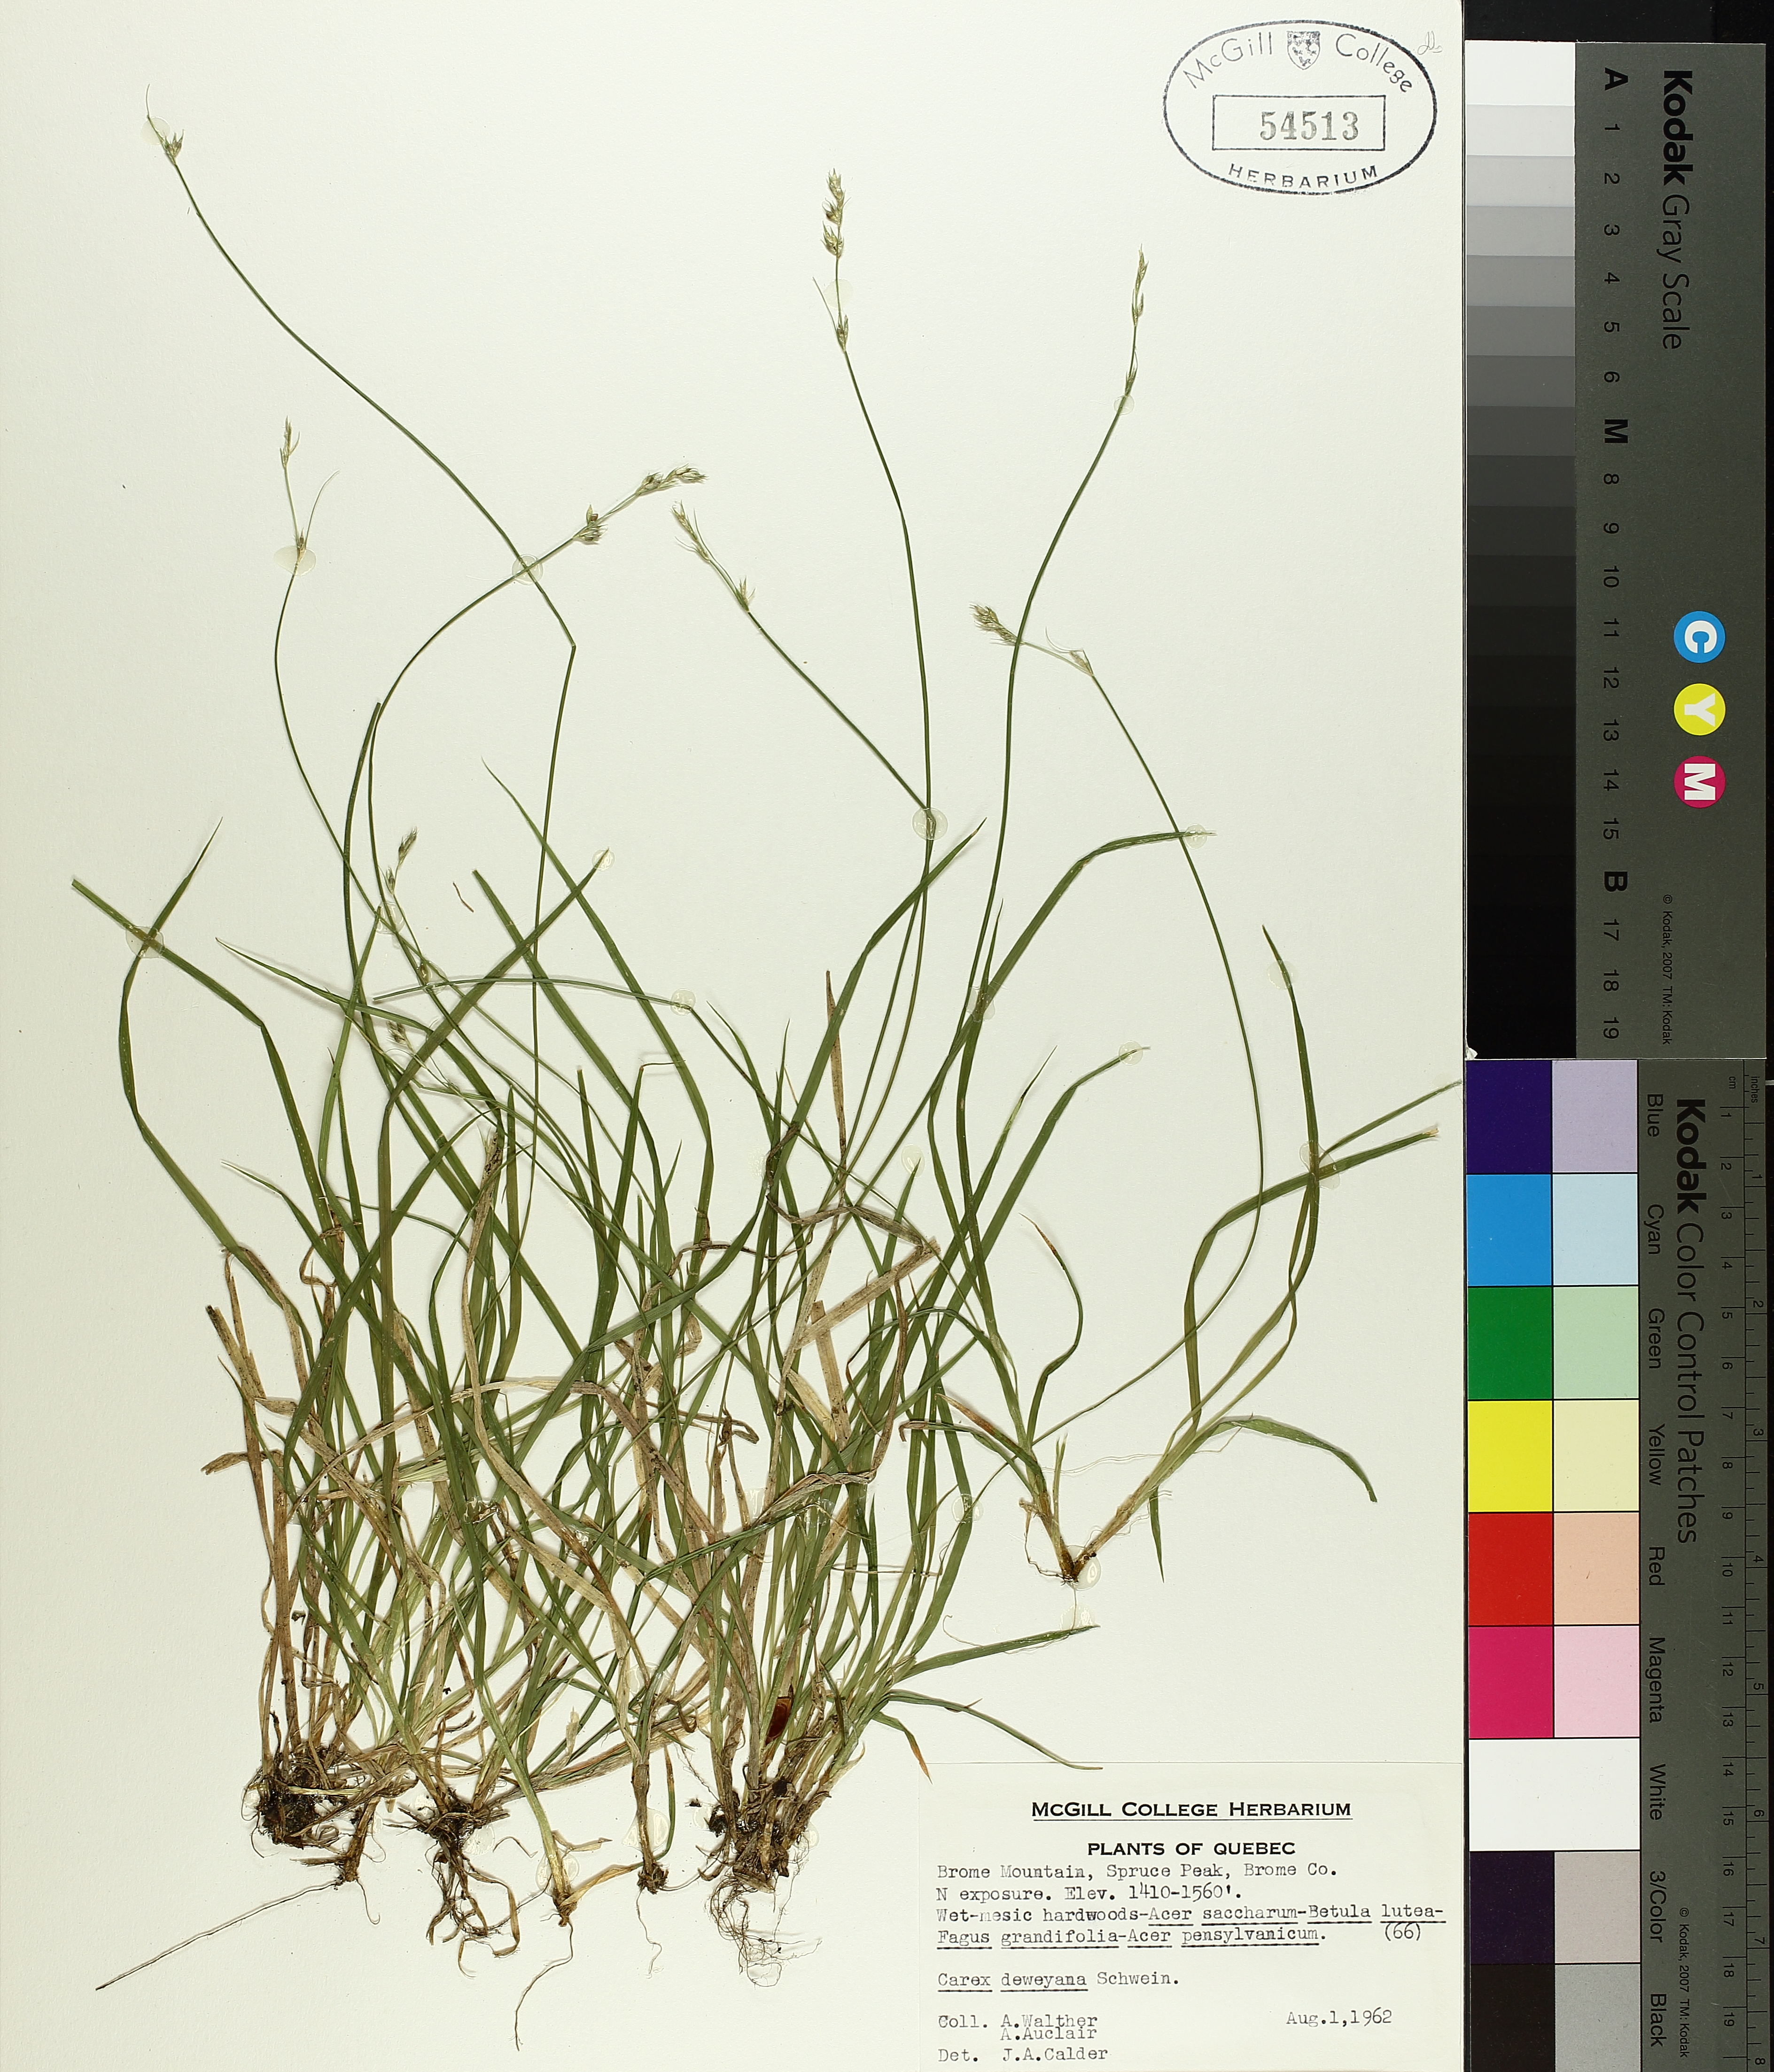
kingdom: Plantae
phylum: Tracheophyta
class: Liliopsida
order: Poales
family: Cyperaceae
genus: Carex
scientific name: Carex deweyana
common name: Dewey's sedge
